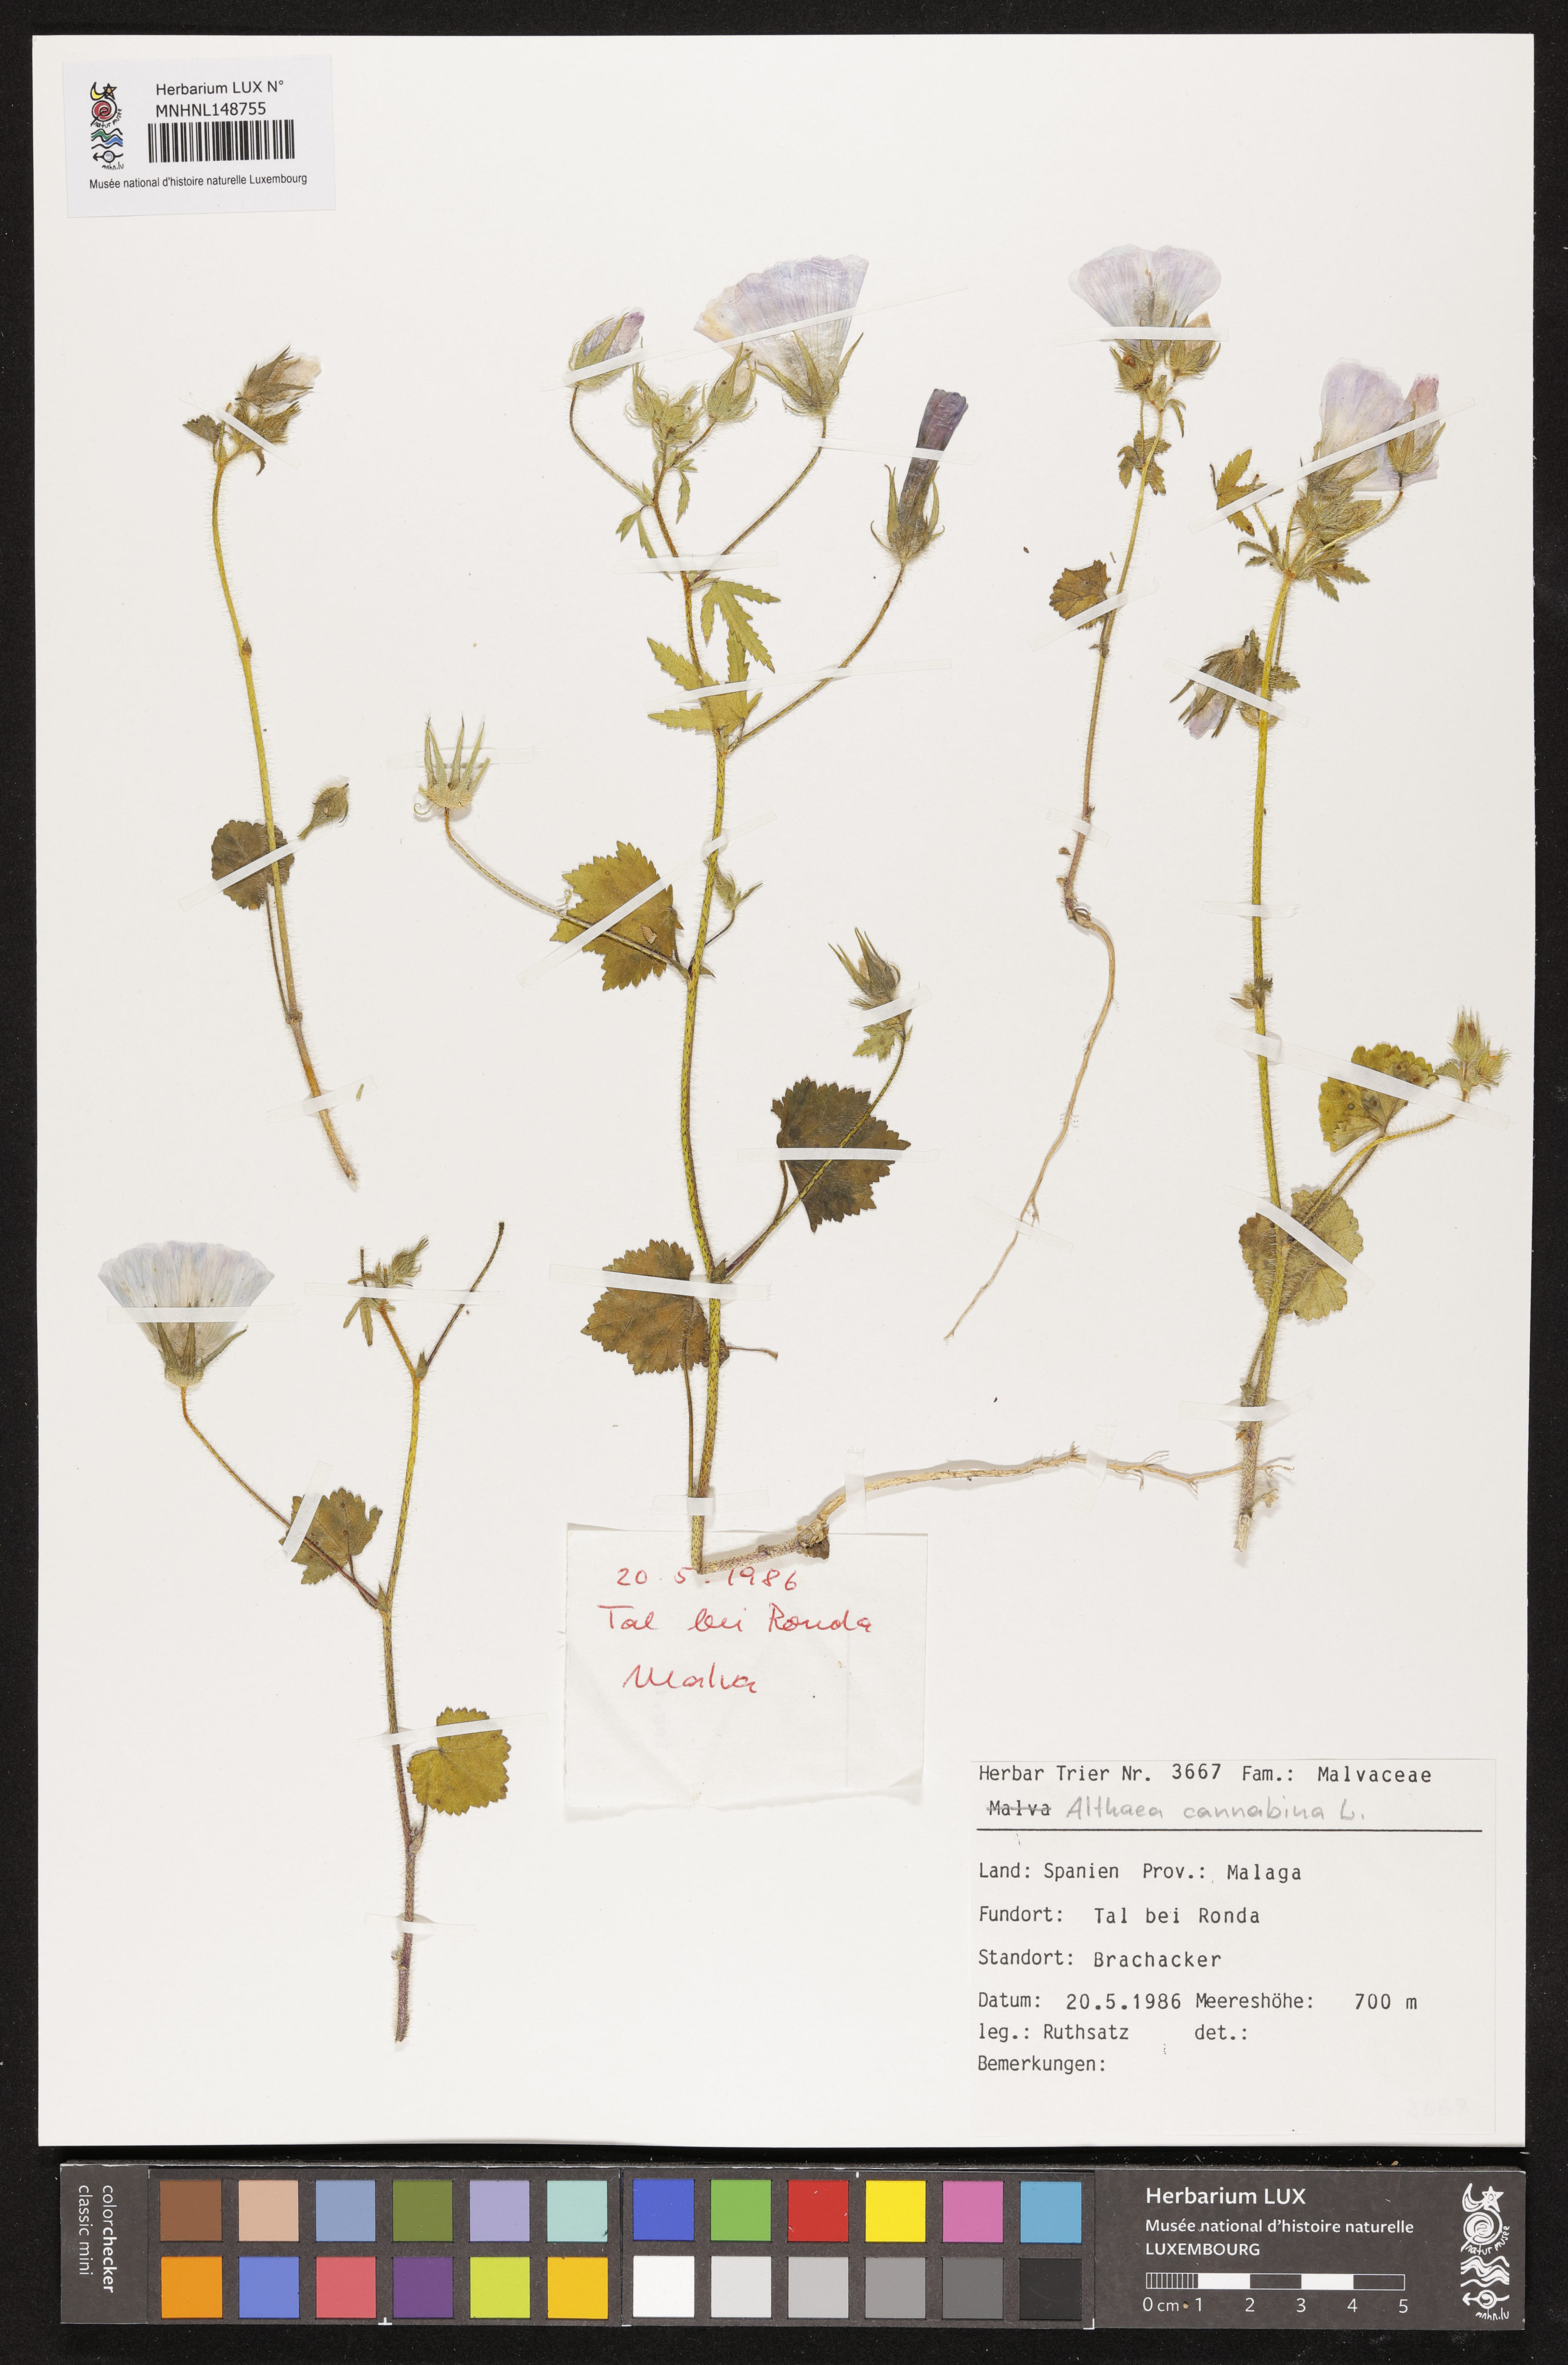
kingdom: Plantae
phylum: Tracheophyta
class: Magnoliopsida
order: Malvales
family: Malvaceae
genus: Althaea
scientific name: Althaea cannabina
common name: Palm-leaf marshmallow
